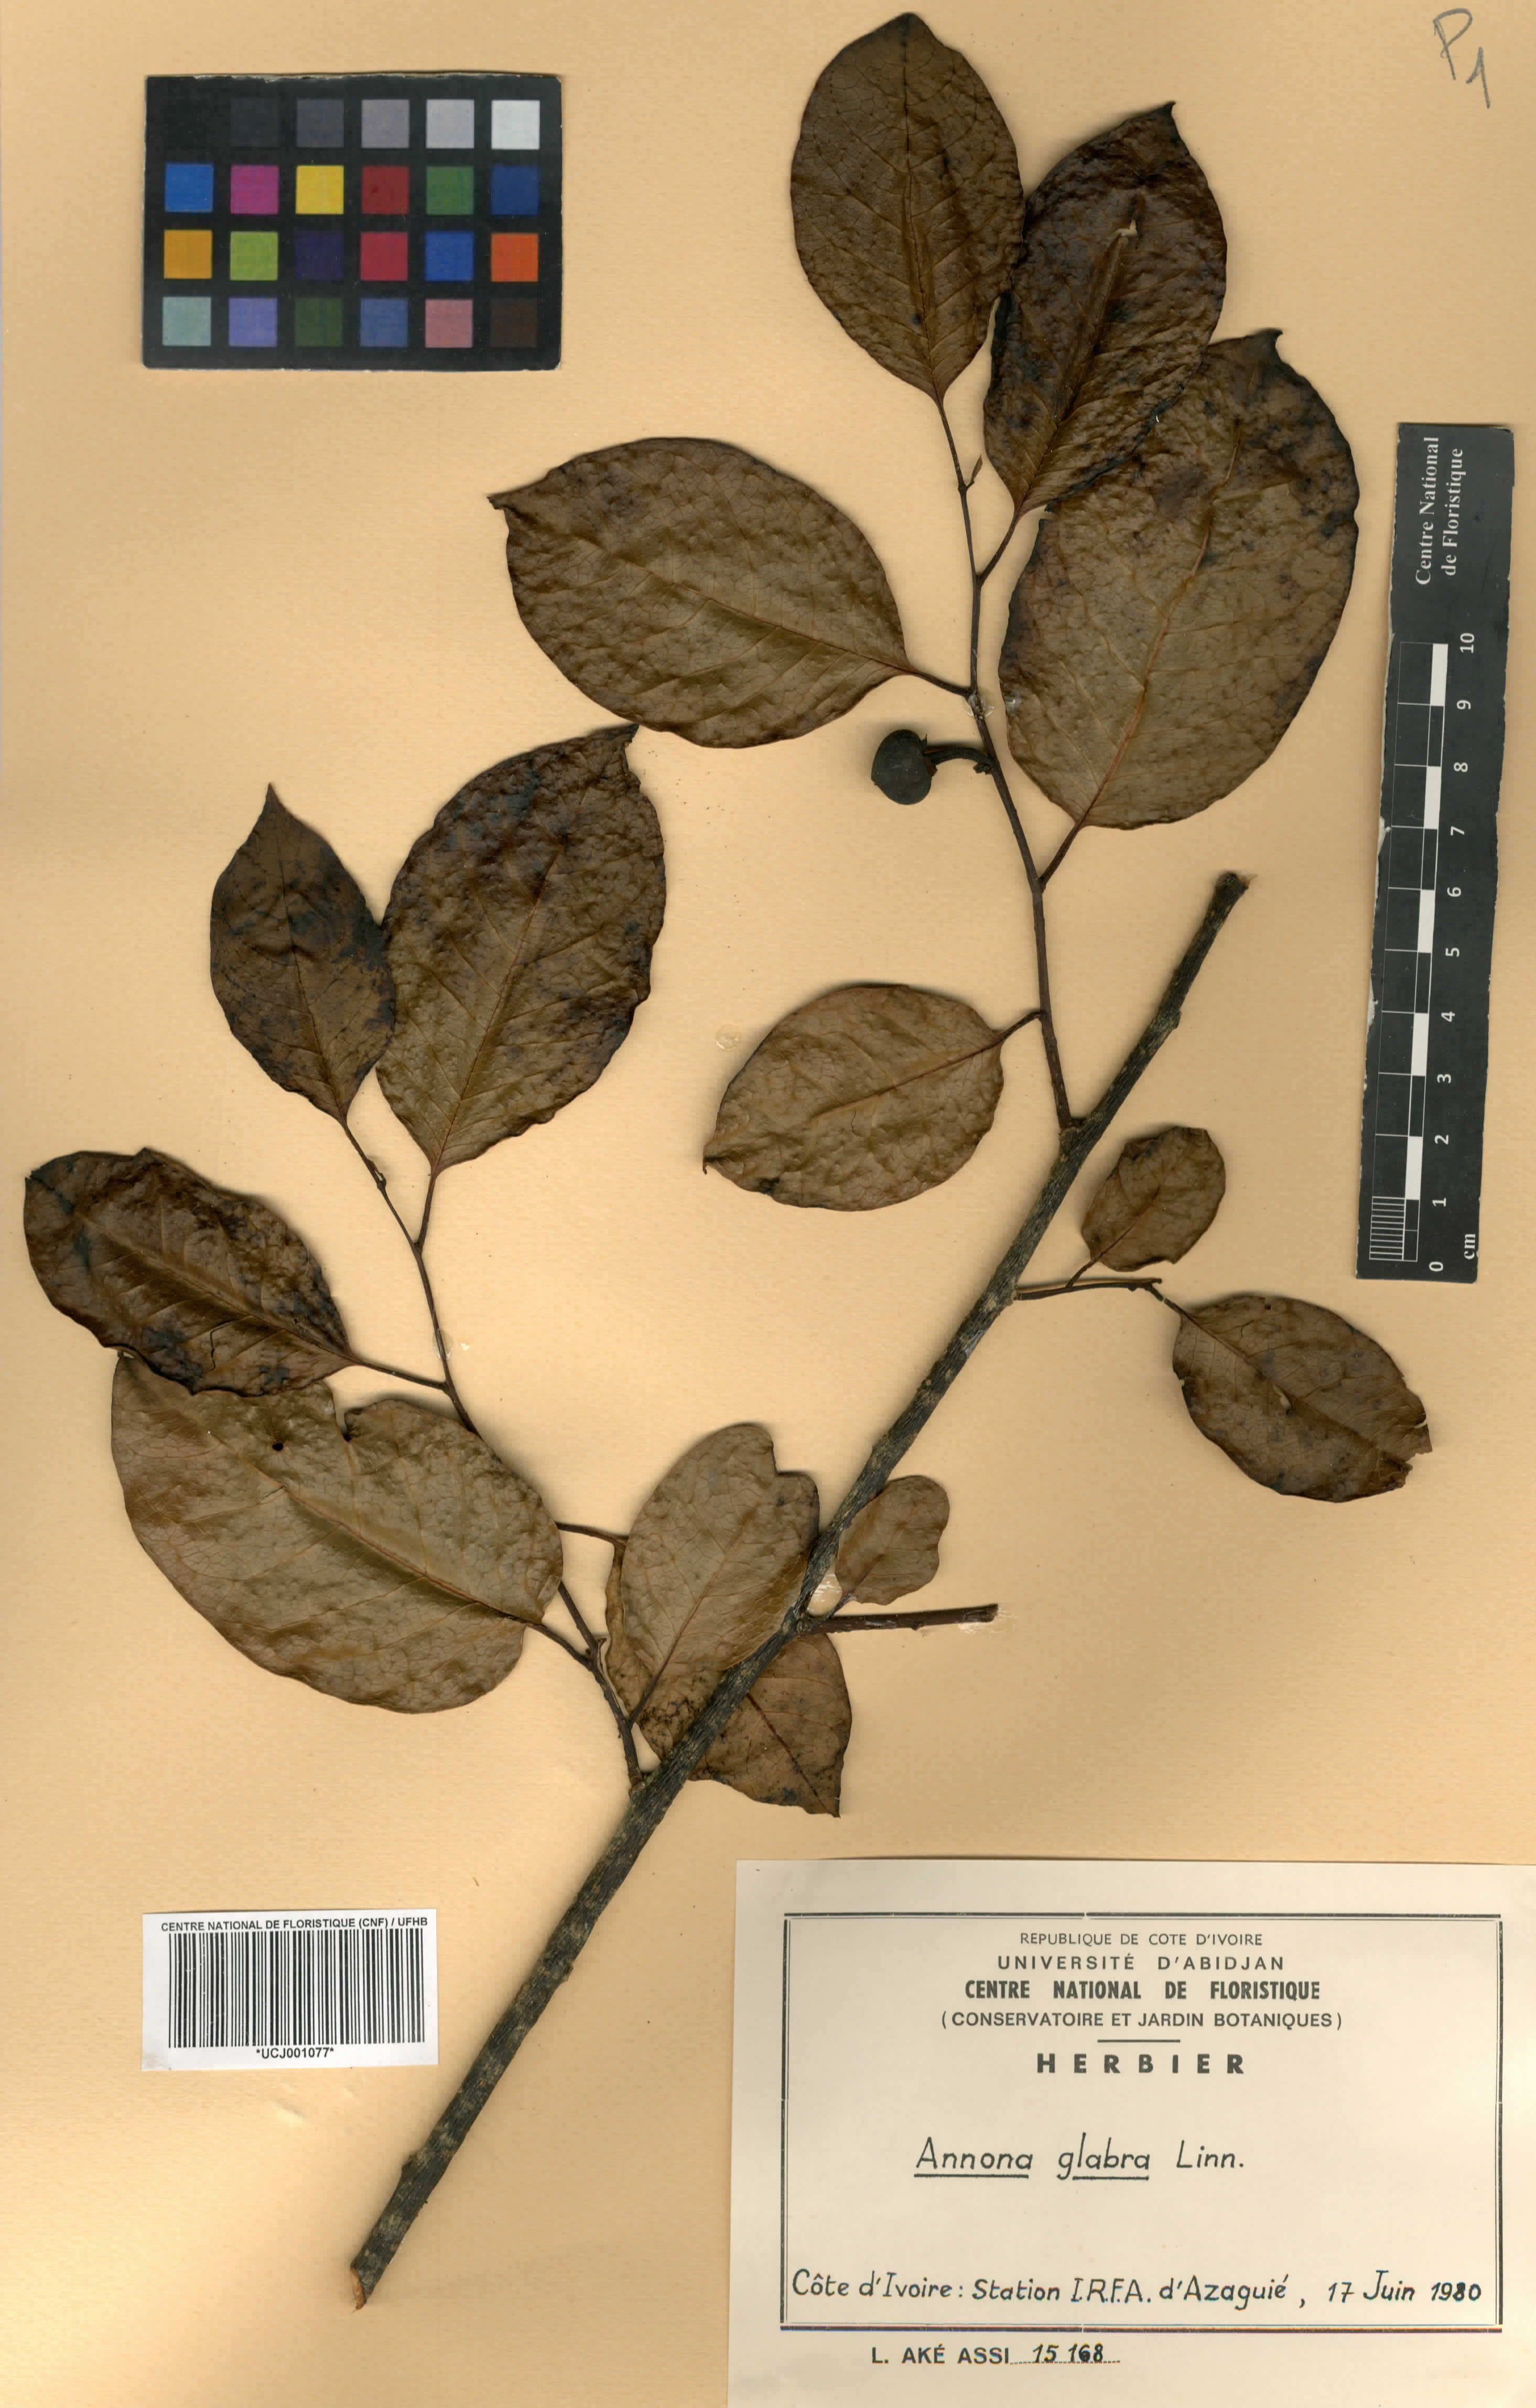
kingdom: Plantae
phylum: Tracheophyta
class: Magnoliopsida
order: Magnoliales
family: Annonaceae
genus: Annona
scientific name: Annona glabra
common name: Monkey apple
